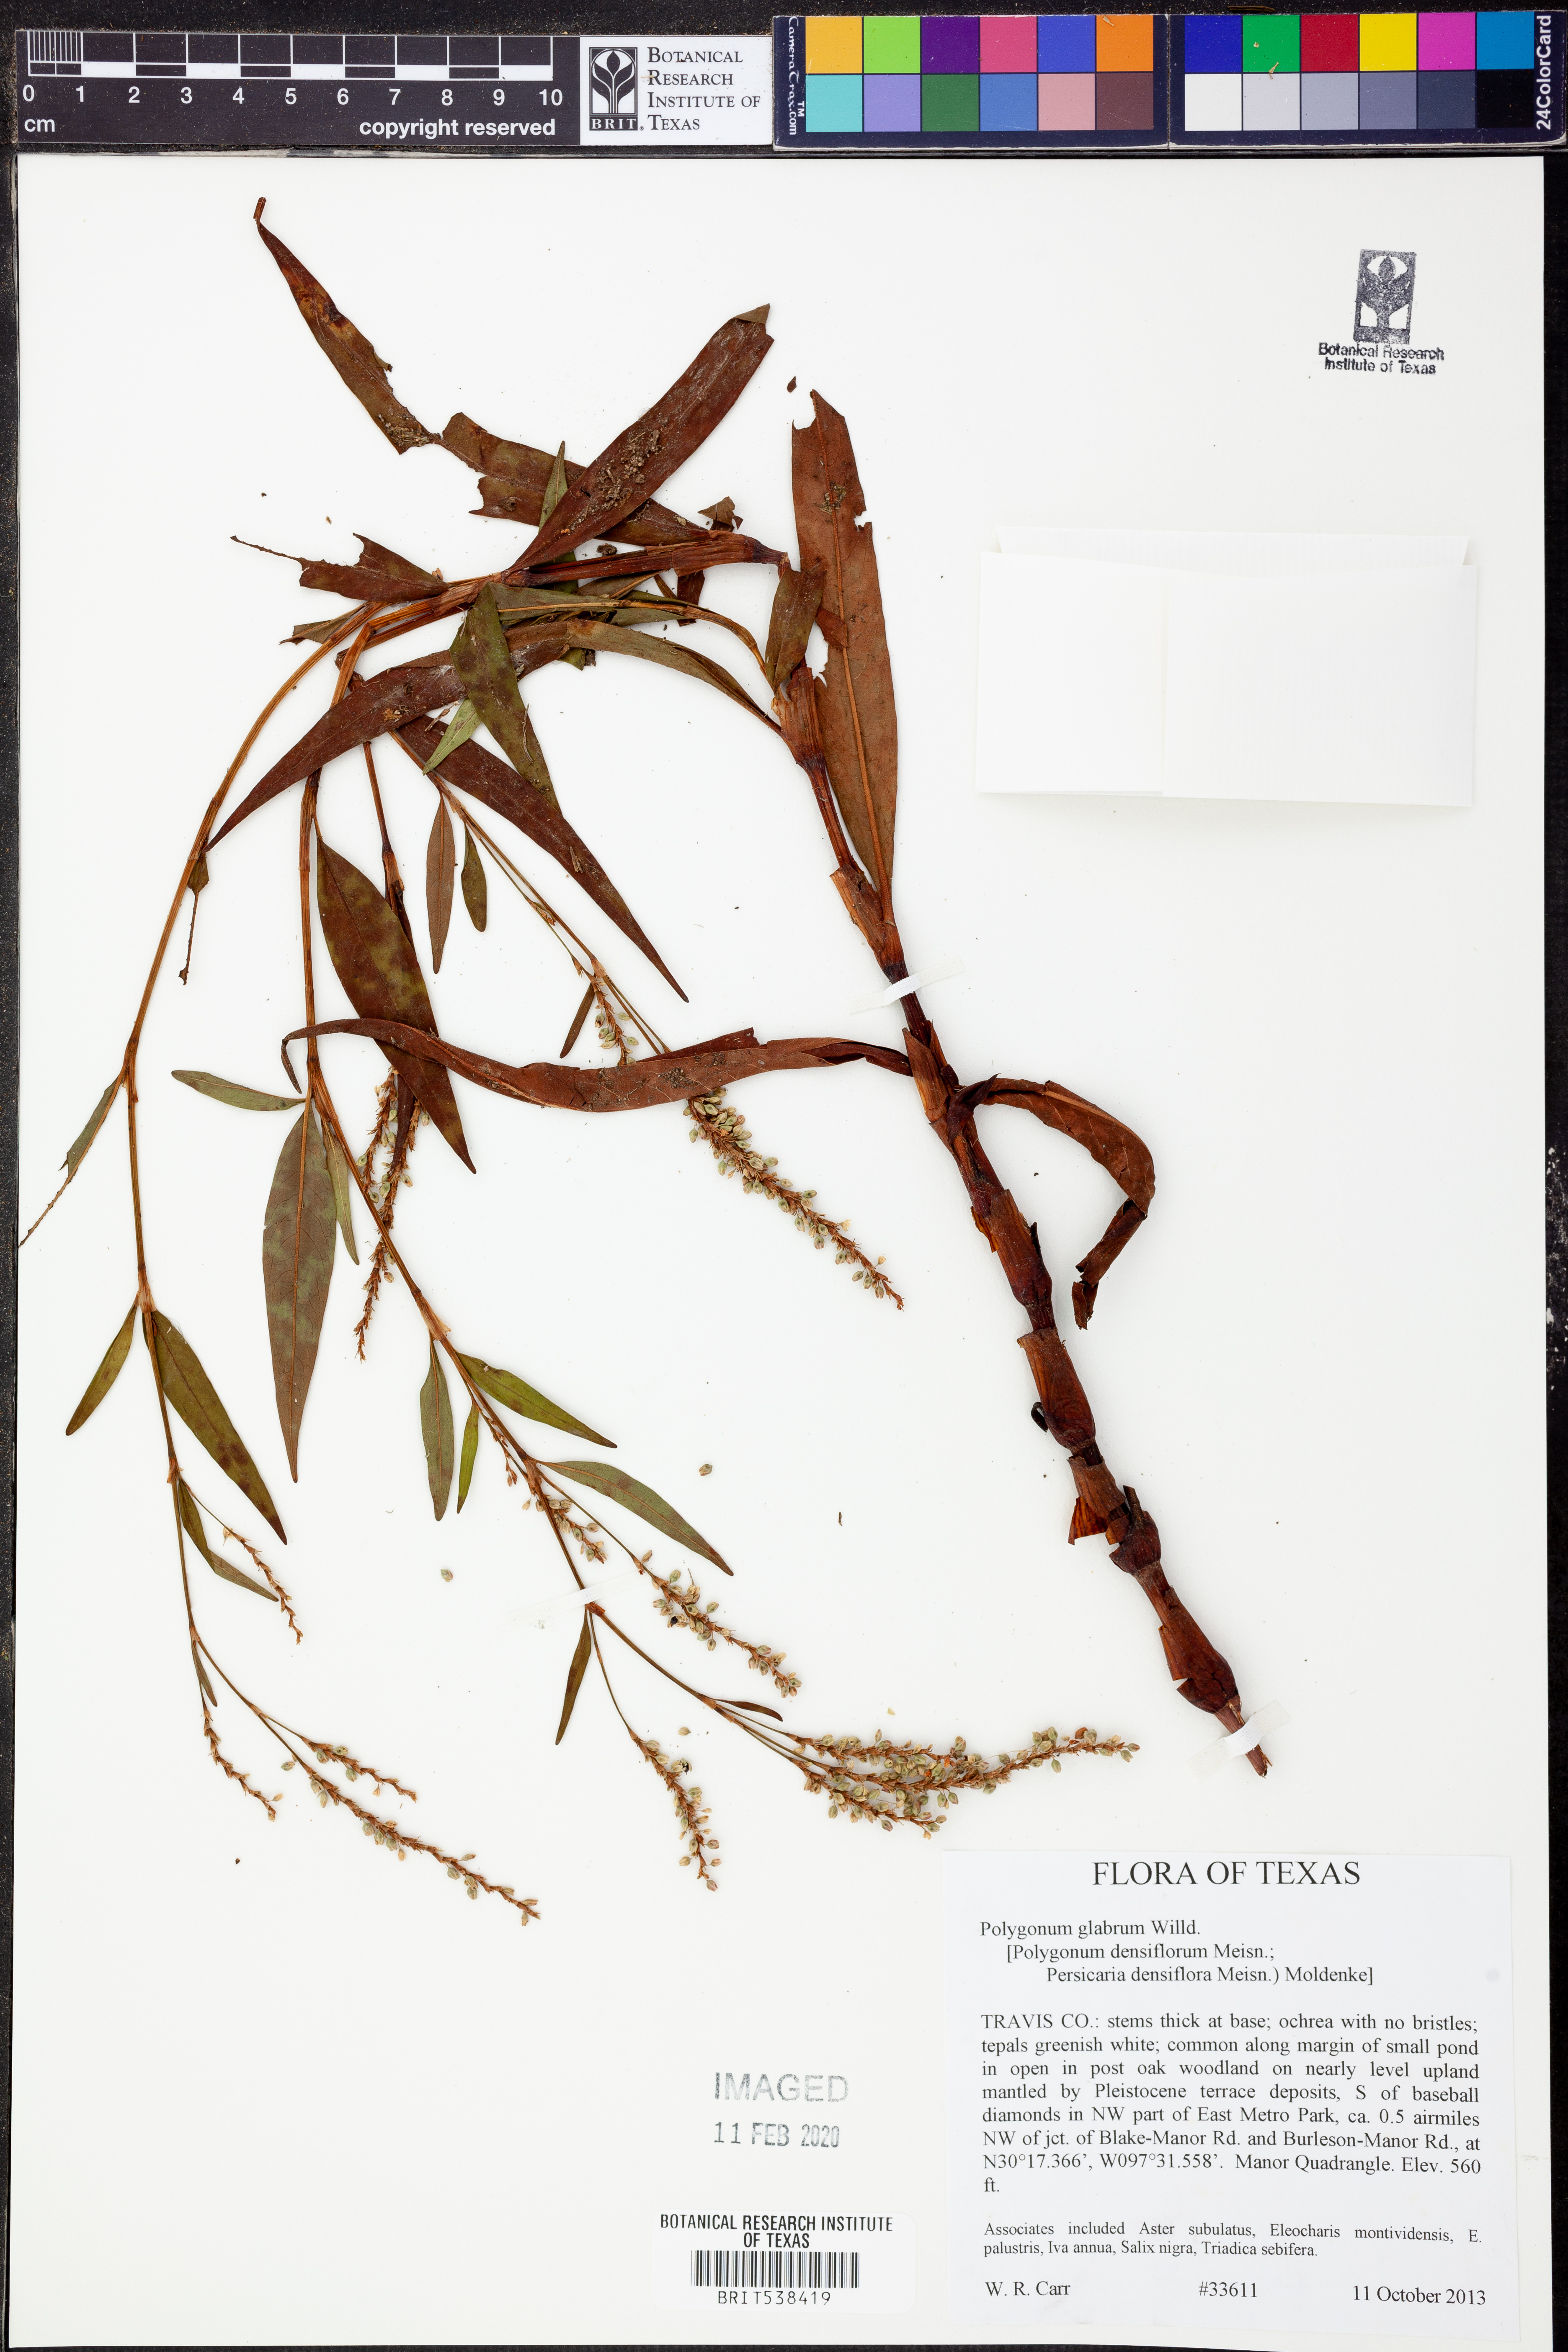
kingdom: Plantae
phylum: Tracheophyta
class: Magnoliopsida
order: Caryophyllales
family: Polygonaceae
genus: Persicaria
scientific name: Persicaria glabra
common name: Denseflower knotweed
